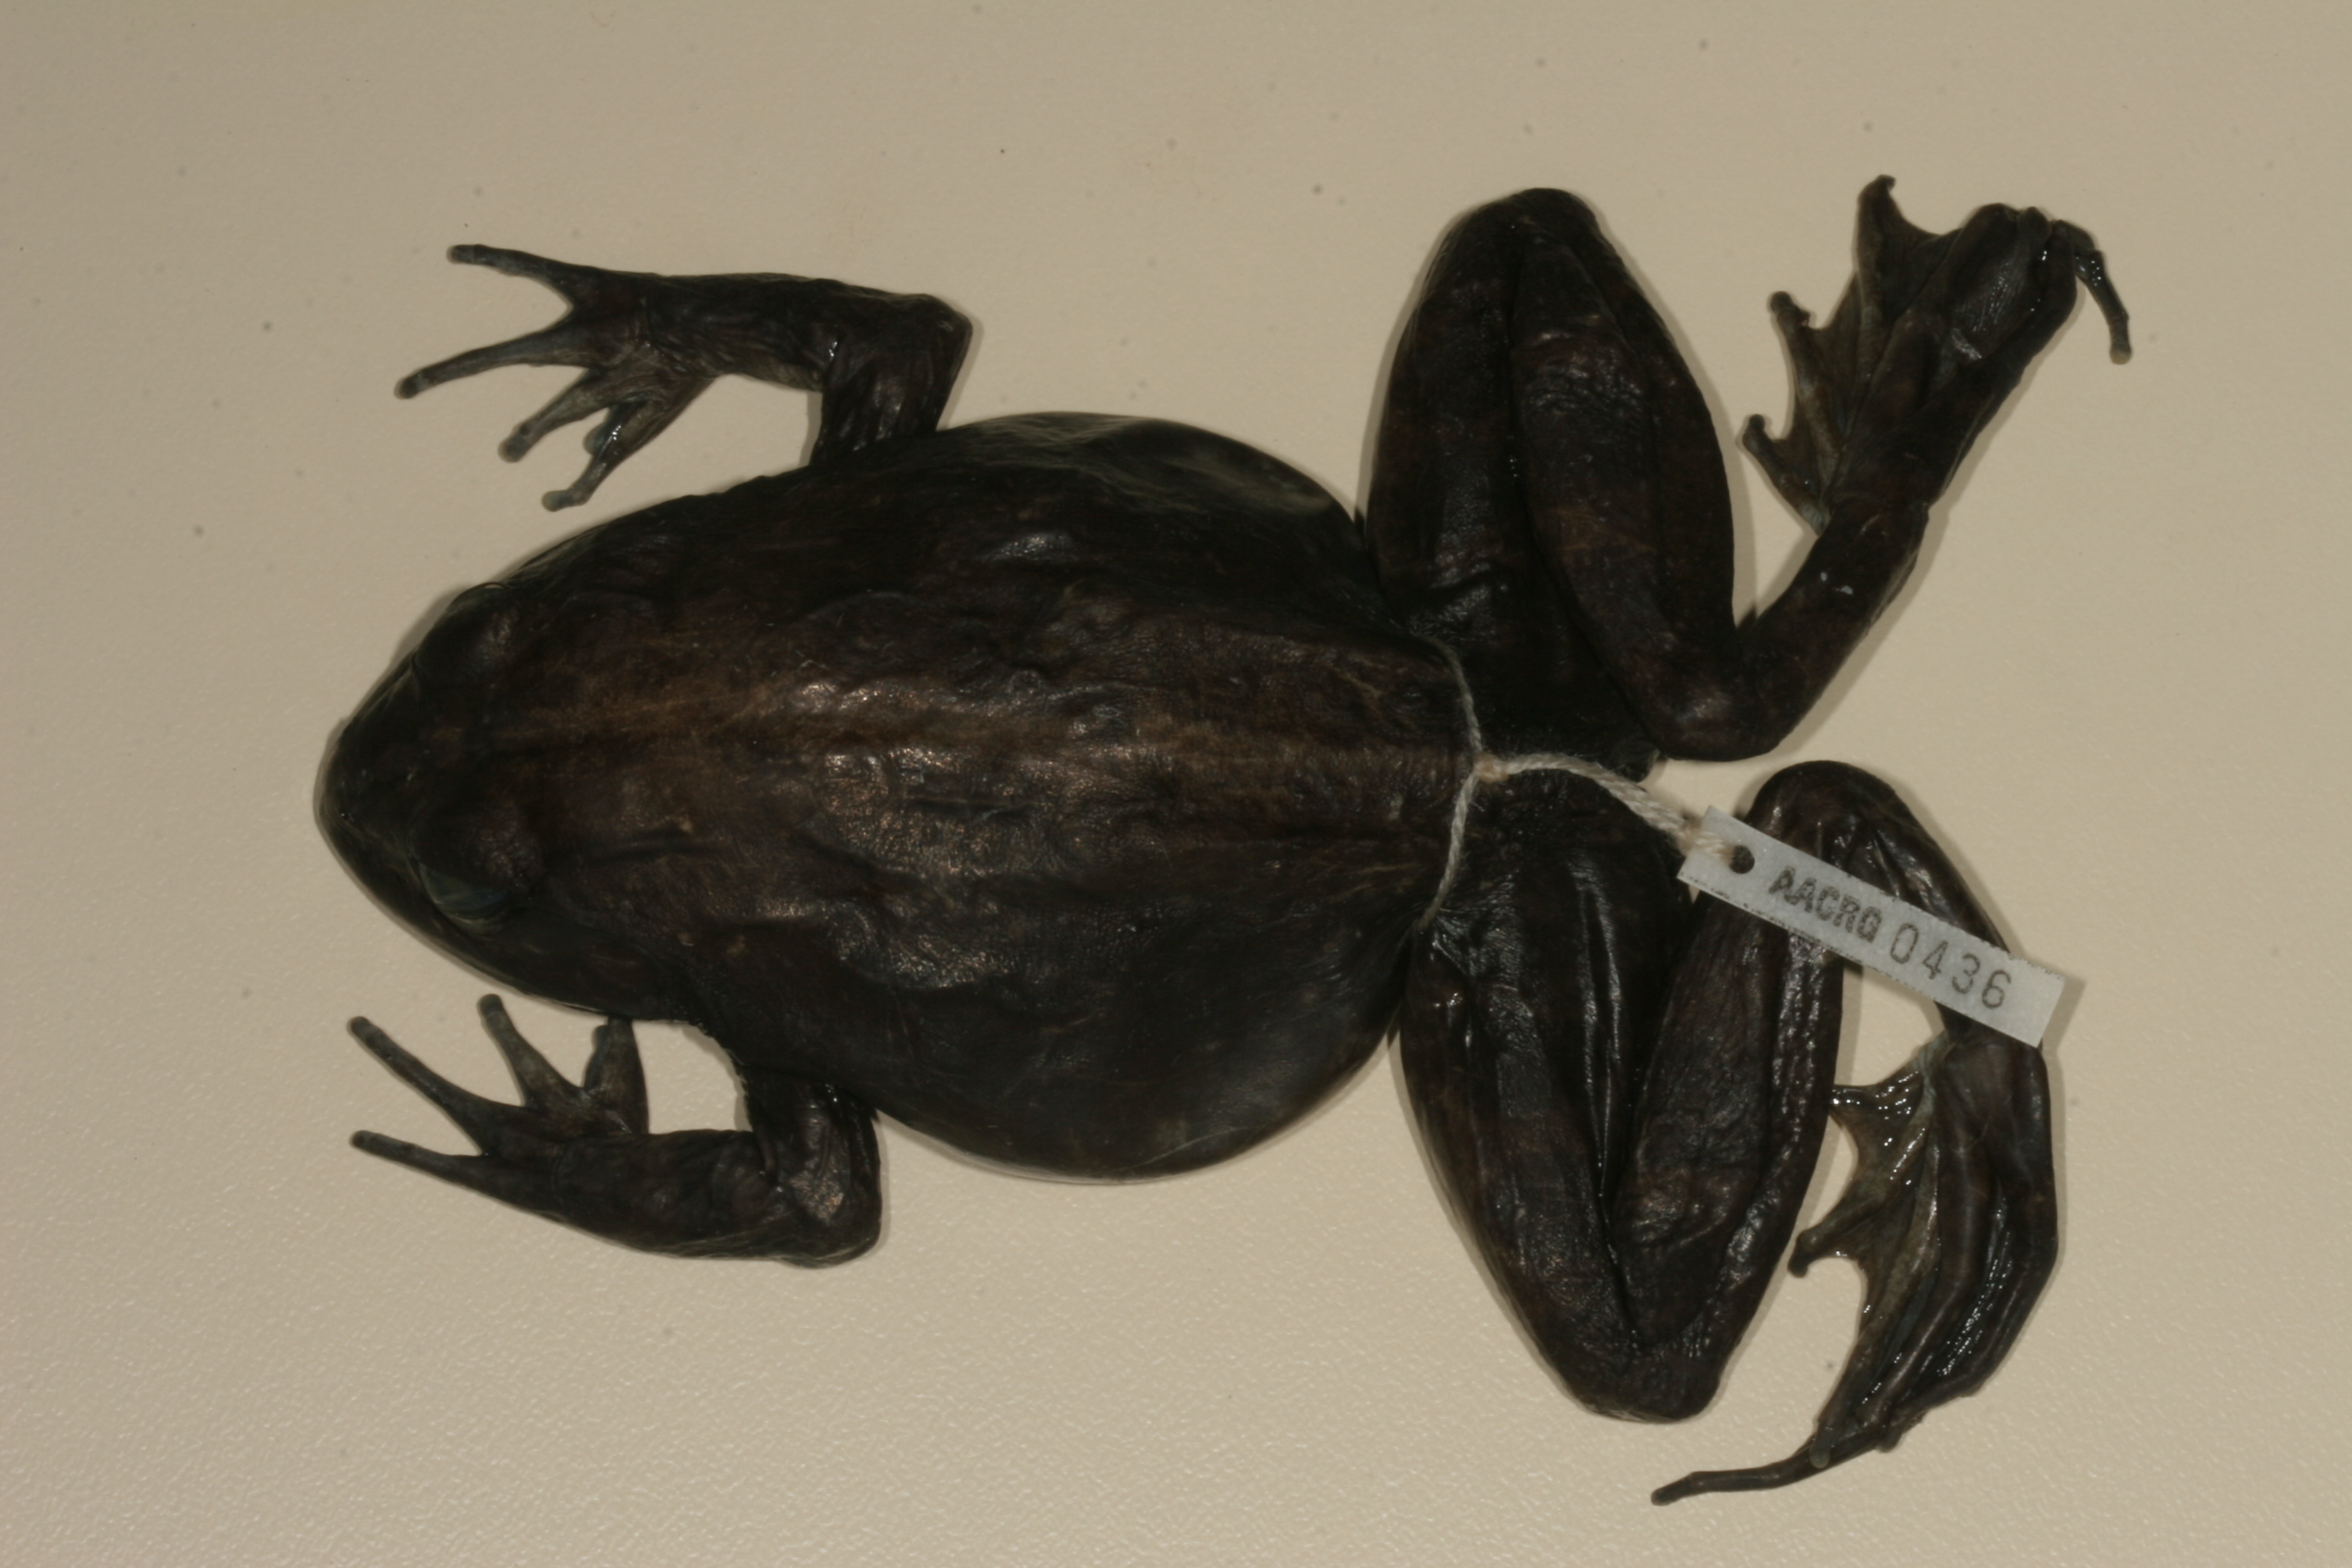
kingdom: Animalia
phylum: Chordata
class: Amphibia
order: Anura
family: Pyxicephalidae
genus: Amietia
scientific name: Amietia vandijki
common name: Van dijk's river frog
